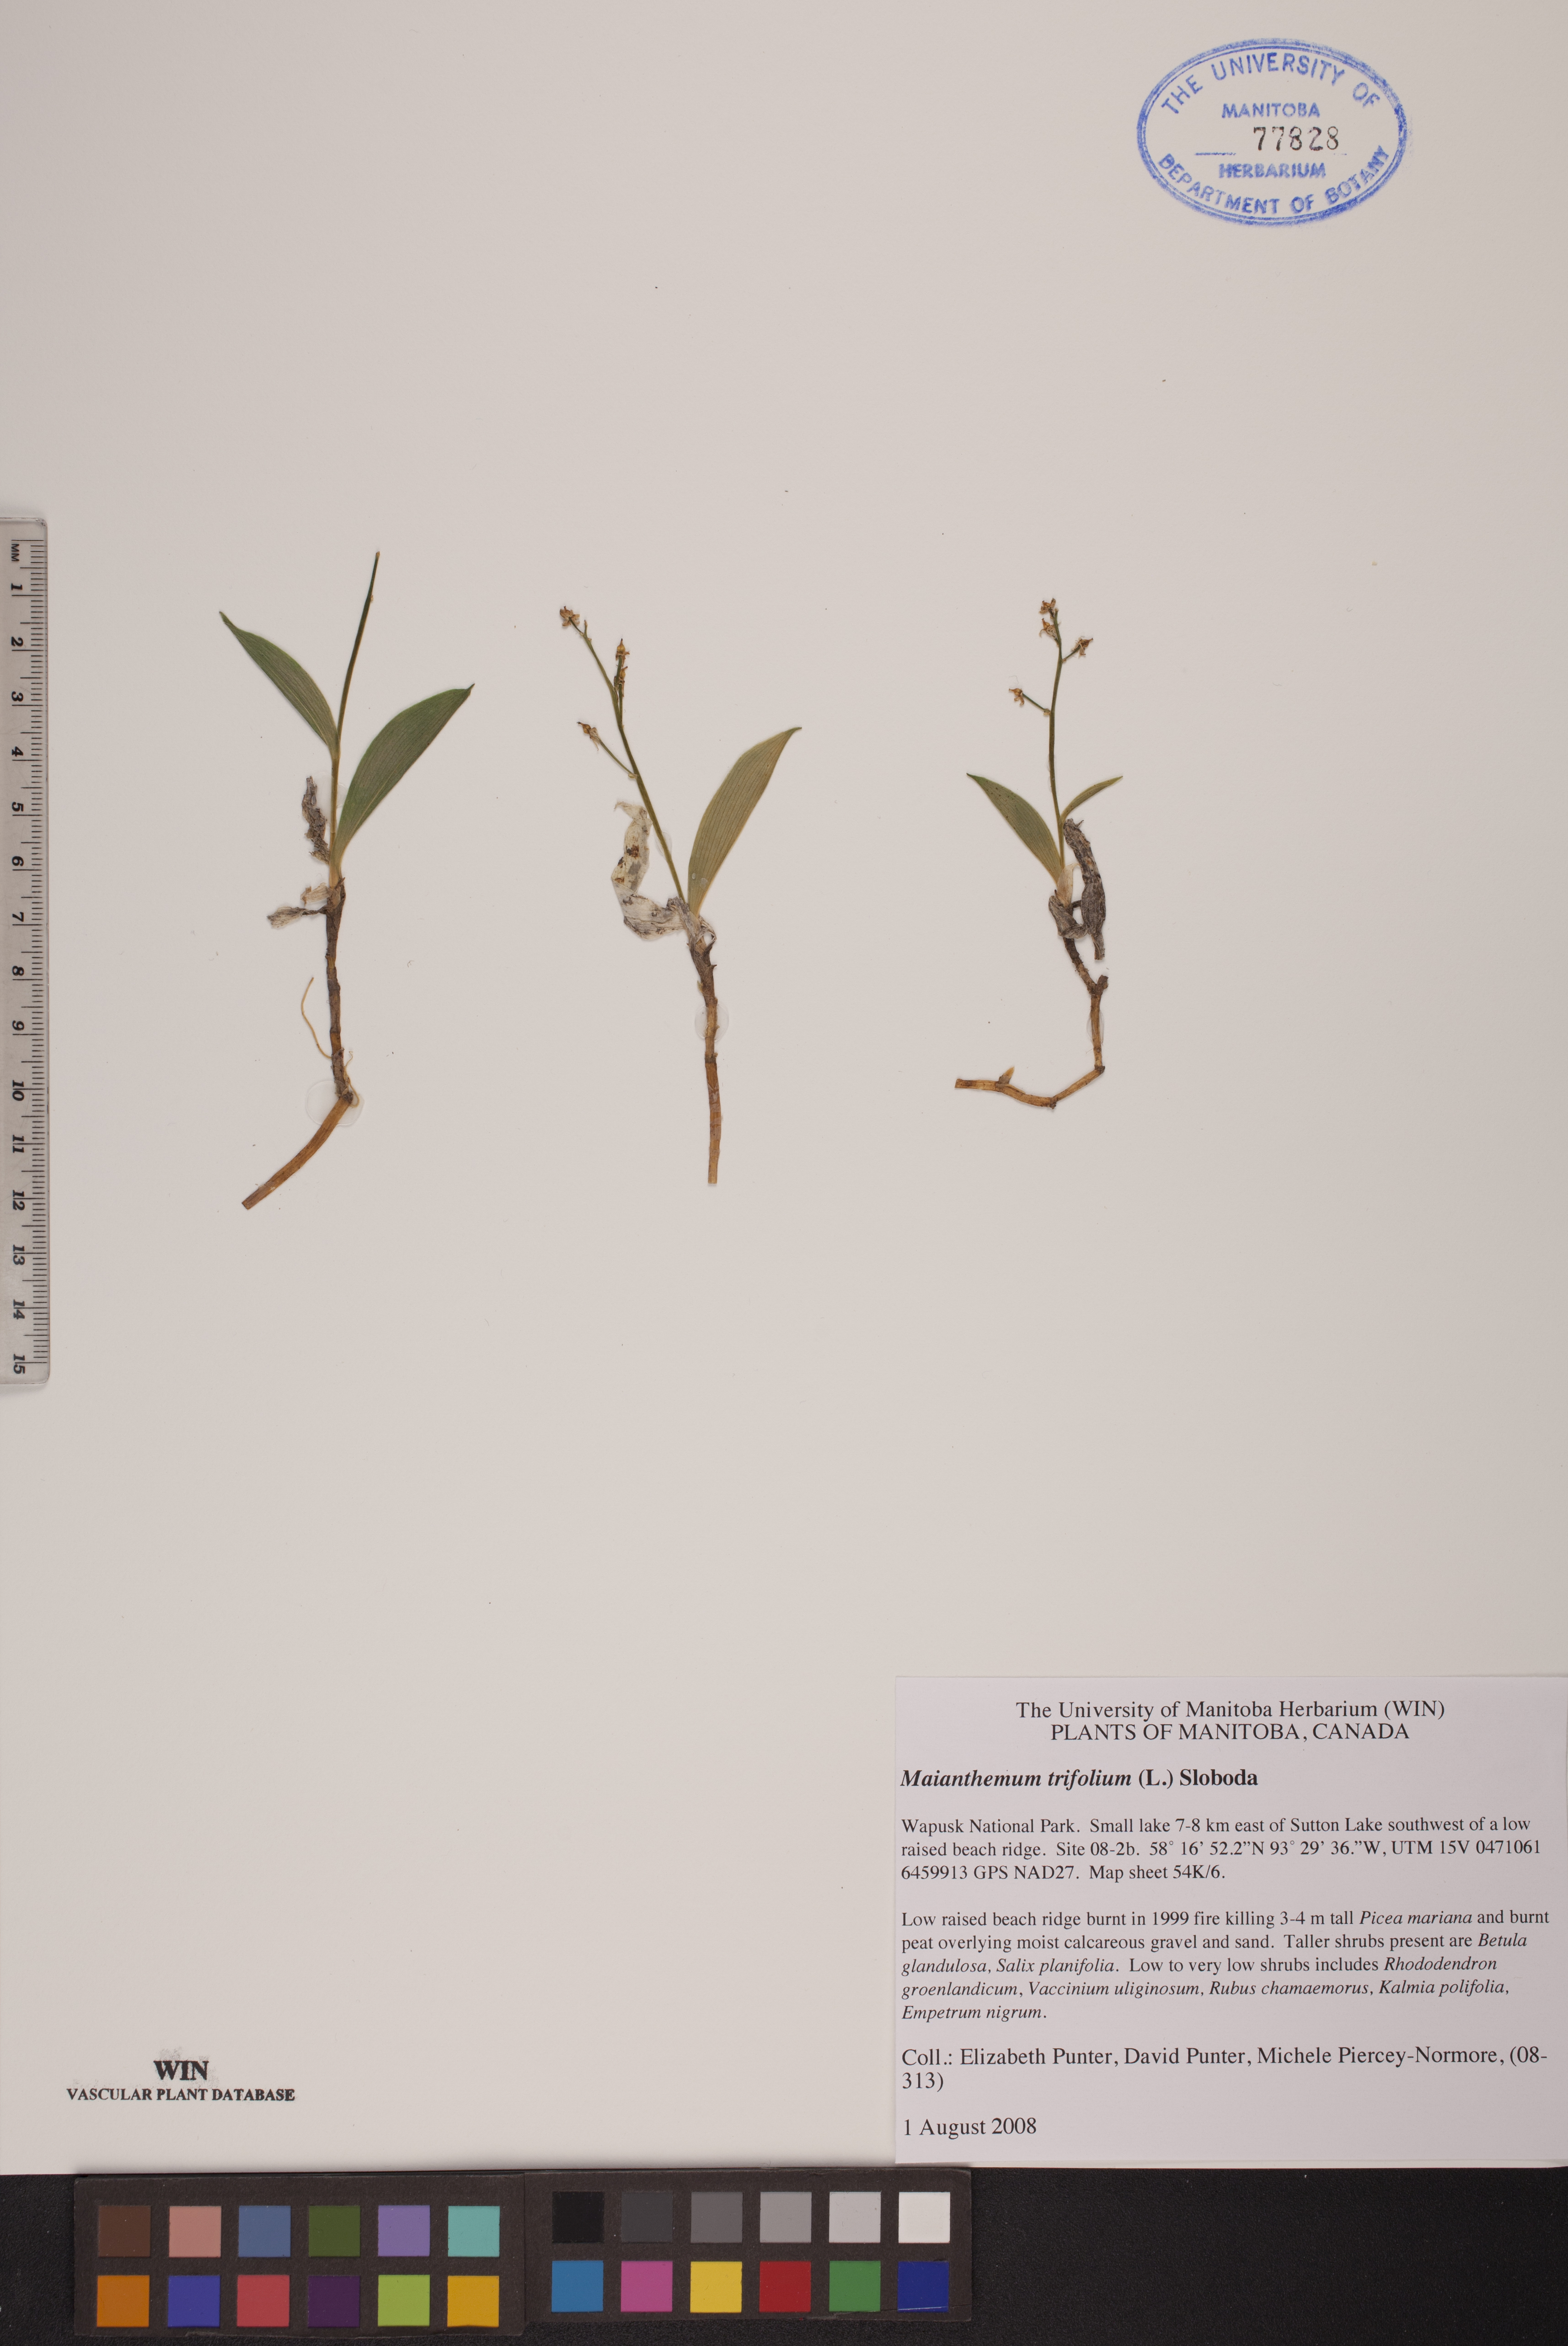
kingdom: Plantae
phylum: Tracheophyta
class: Liliopsida
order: Asparagales
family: Asparagaceae
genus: Maianthemum
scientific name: Maianthemum trifolium
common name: Swamp false solomon's seal
